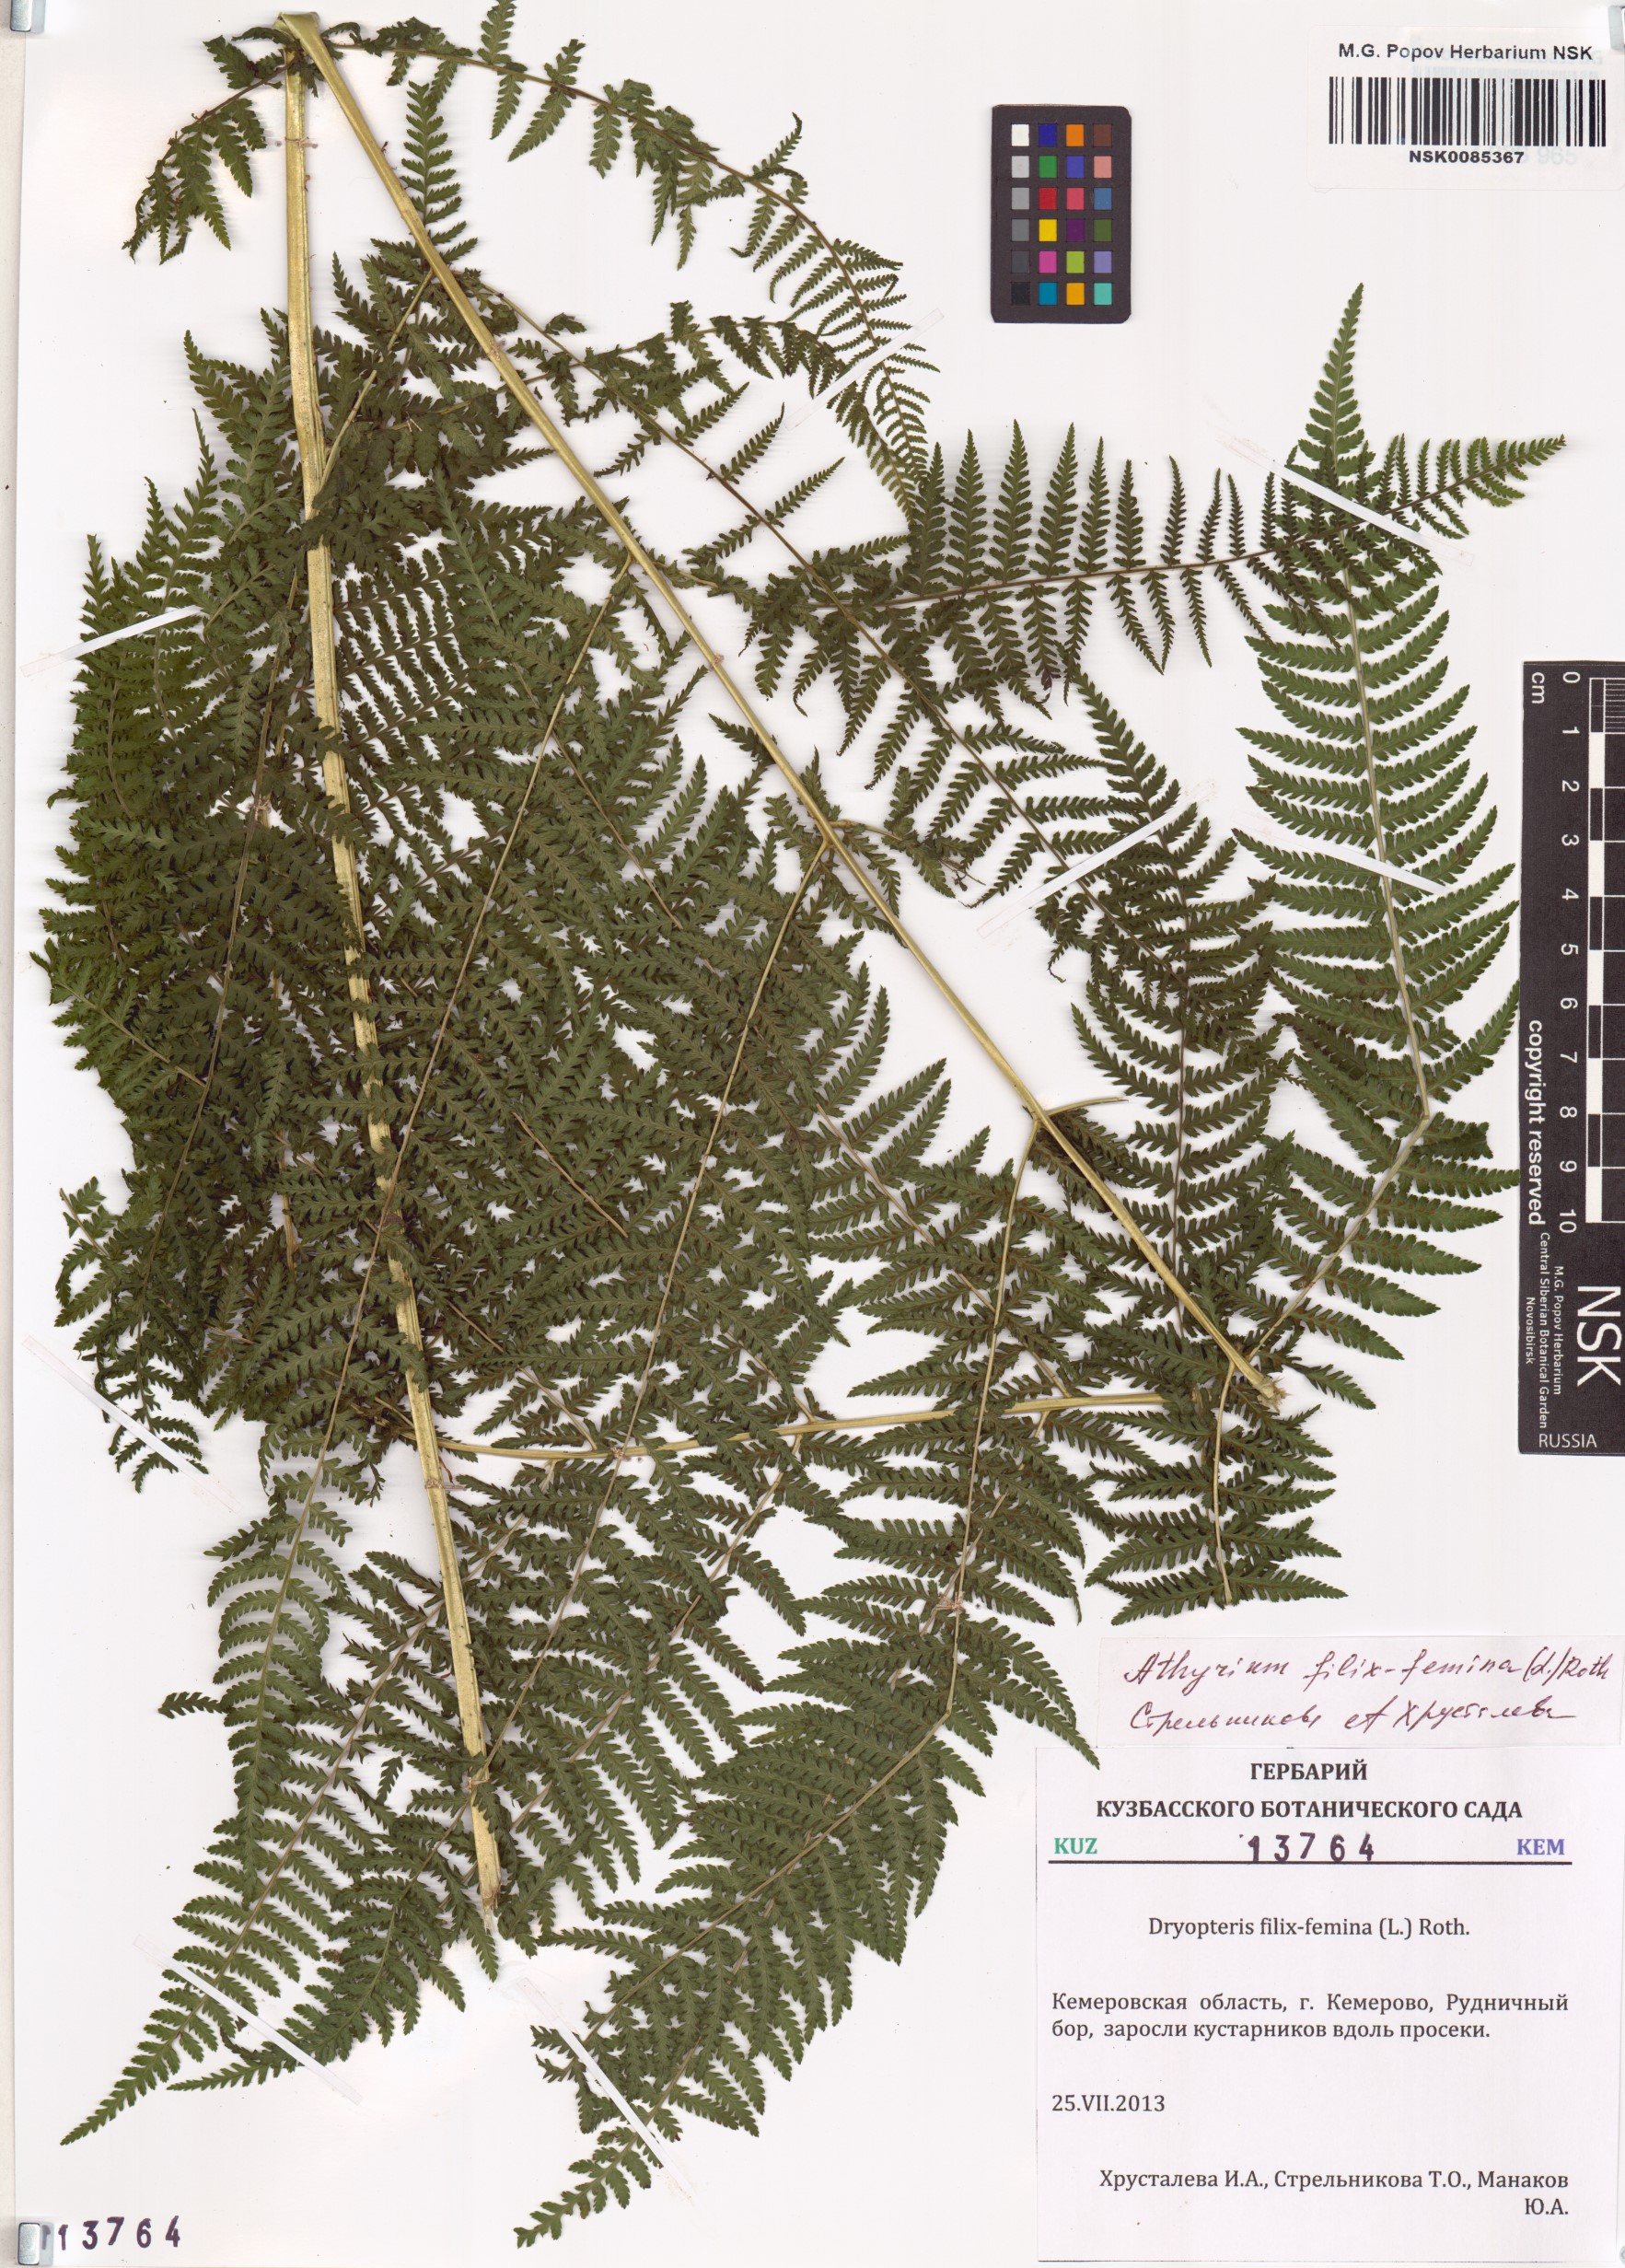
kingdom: Plantae
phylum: Tracheophyta
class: Polypodiopsida
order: Polypodiales
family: Athyriaceae
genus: Athyrium
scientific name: Athyrium filix-femina
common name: Lady fern
